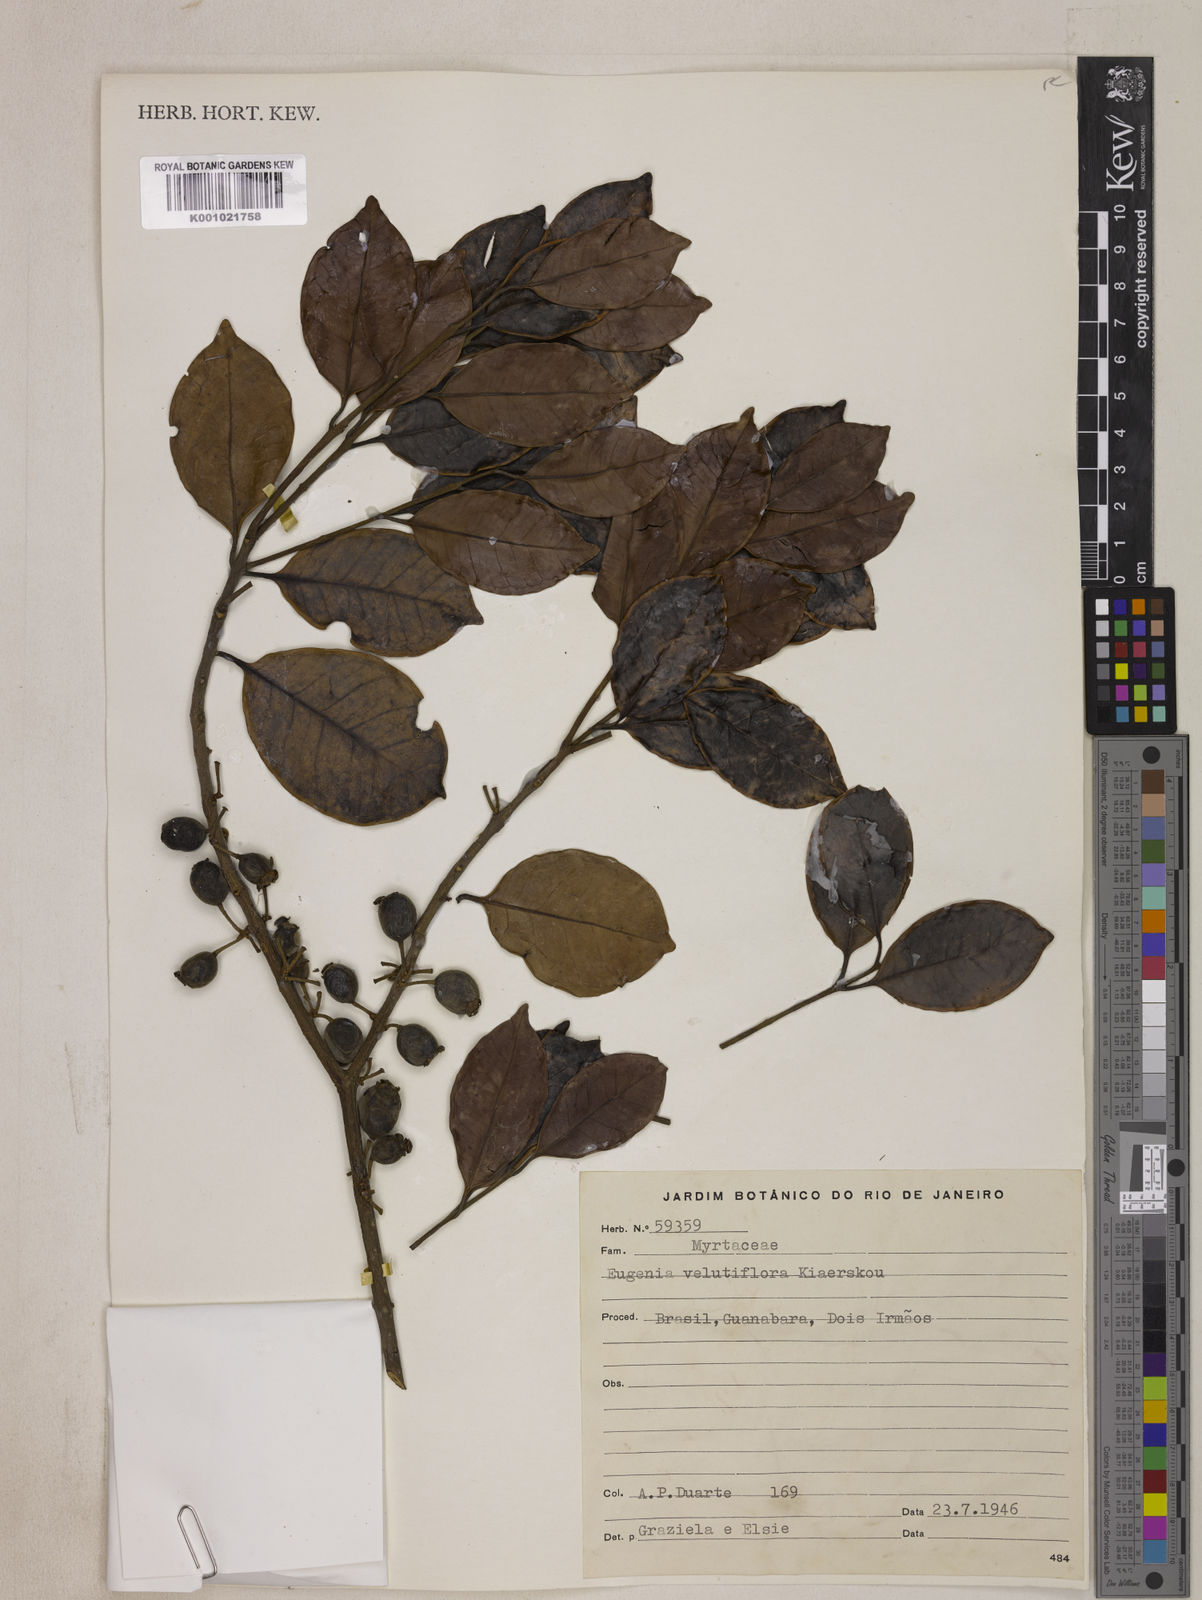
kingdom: Plantae
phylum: Tracheophyta
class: Magnoliopsida
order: Myrtales
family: Myrtaceae
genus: Eugenia
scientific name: Eugenia bahiensis
